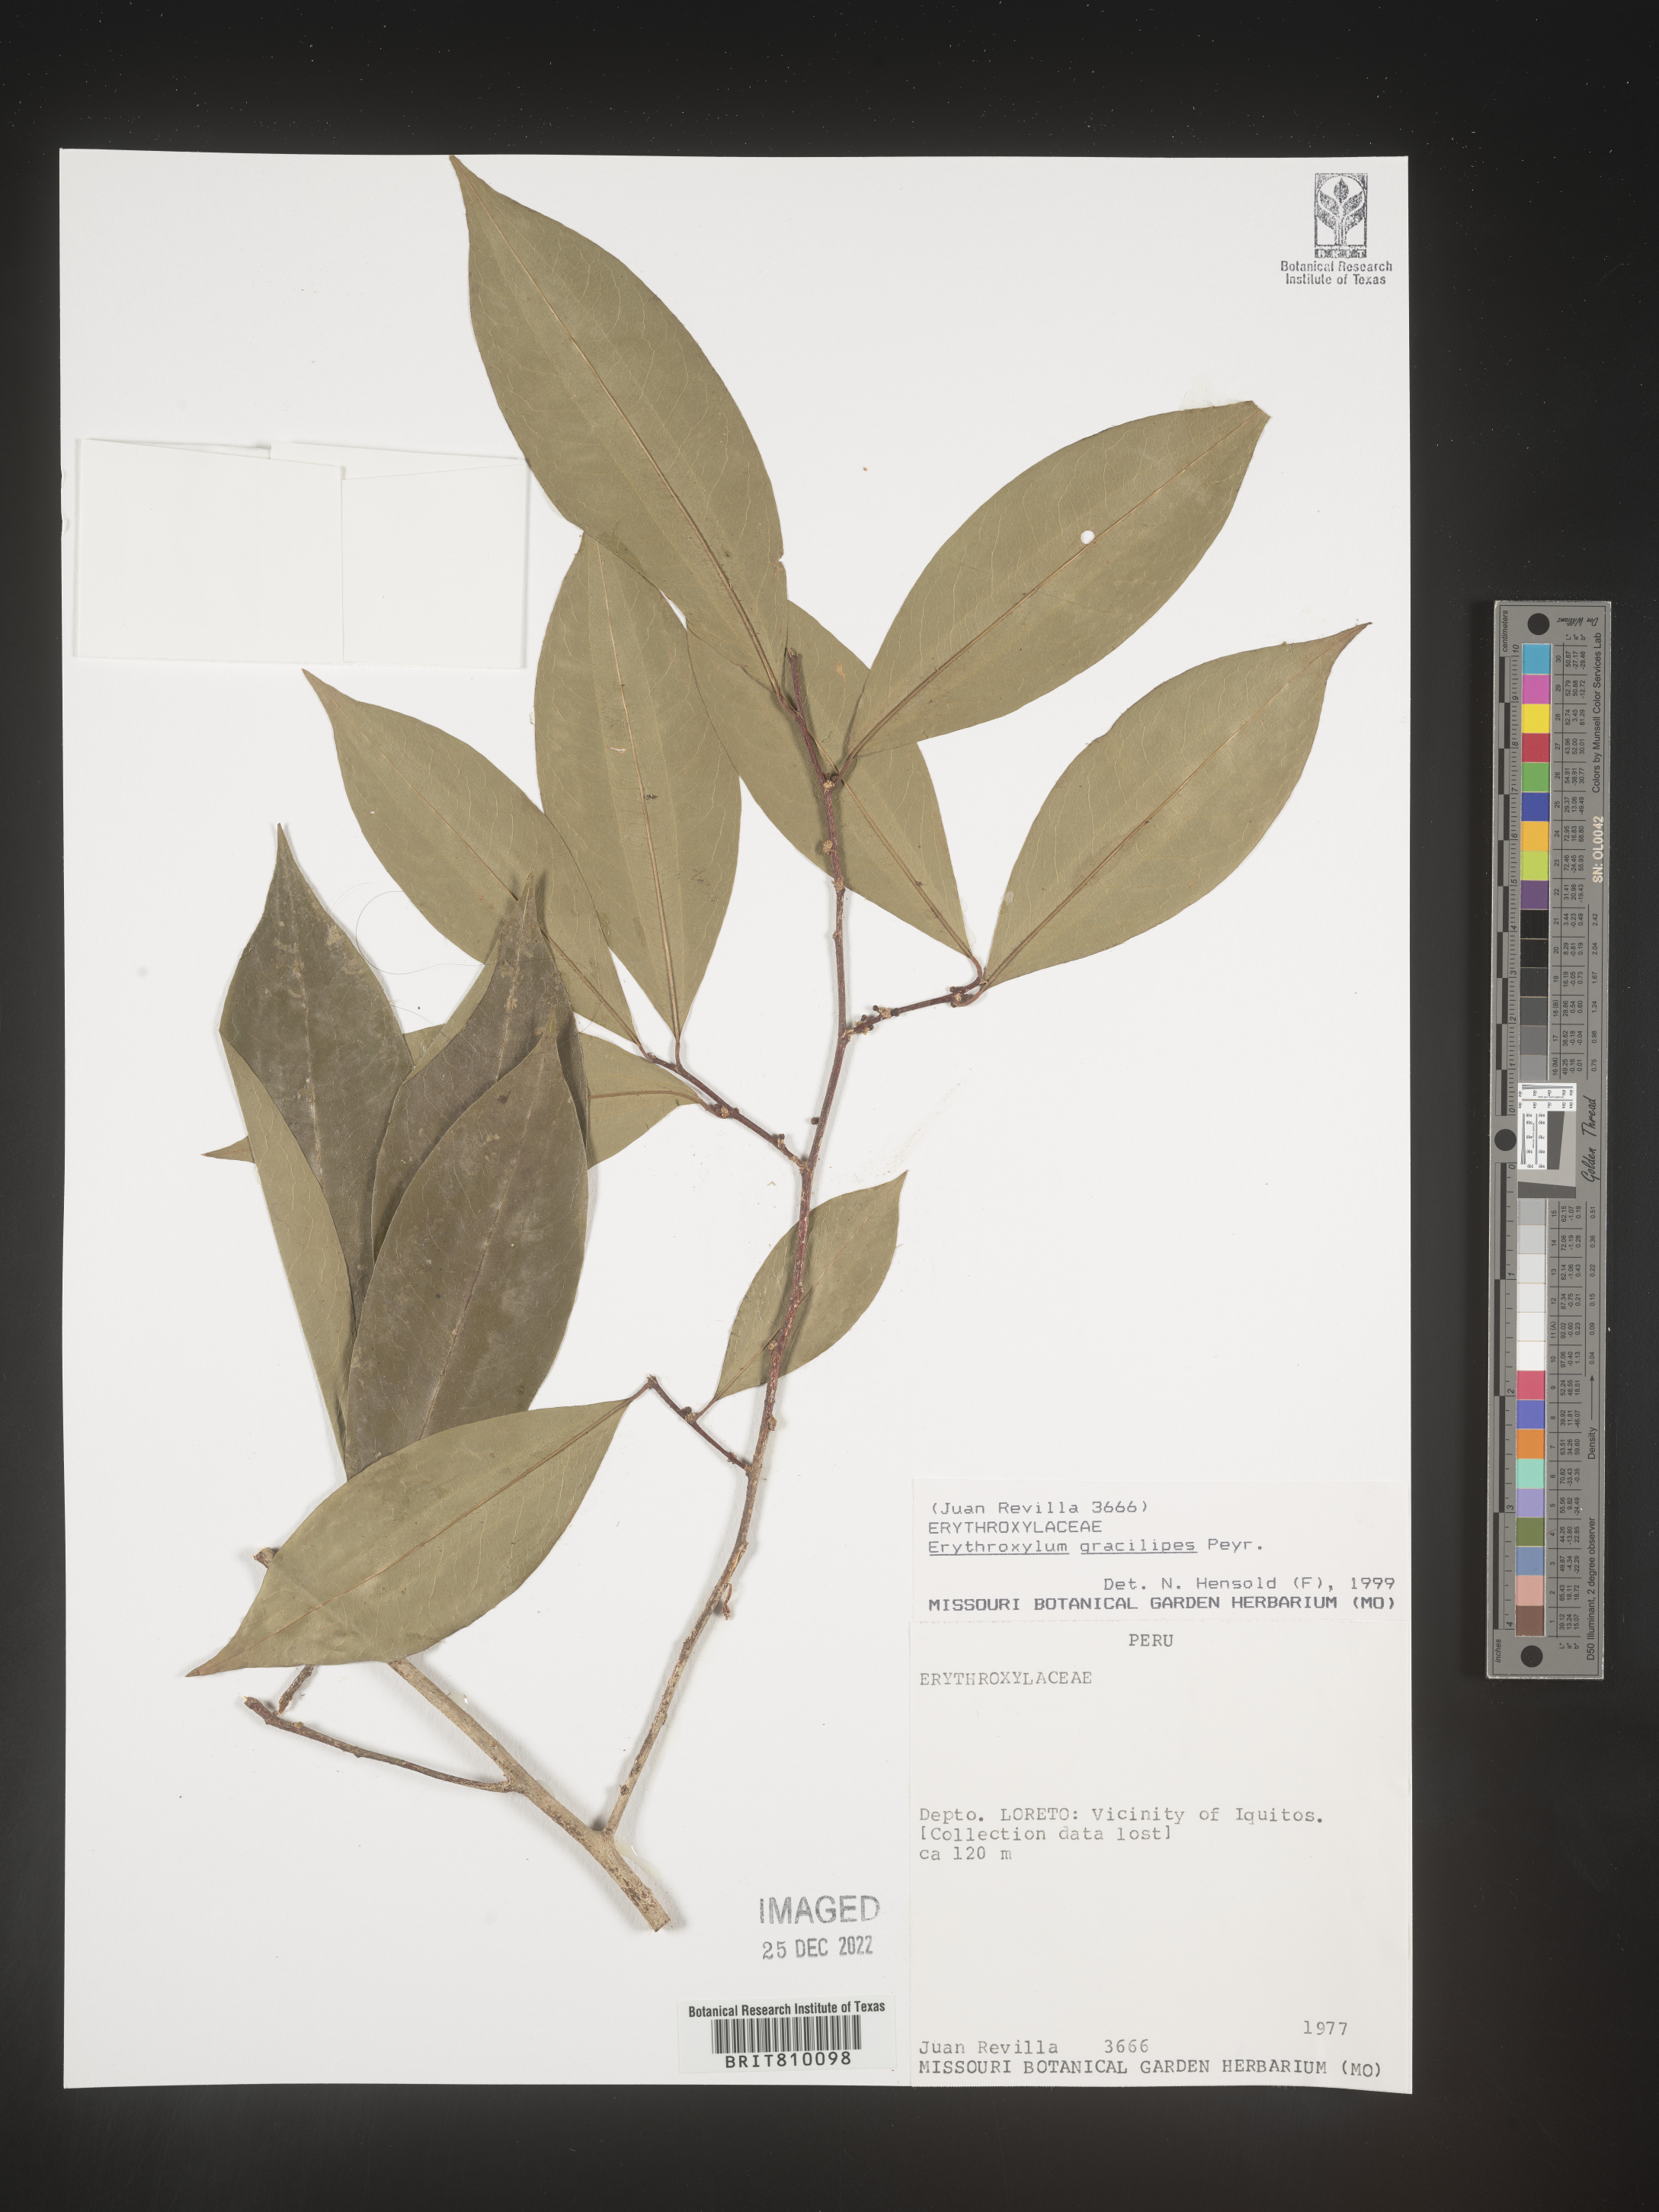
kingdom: Plantae
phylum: Tracheophyta
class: Magnoliopsida
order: Malpighiales
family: Erythroxylaceae
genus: Erythroxylum
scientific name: Erythroxylum
